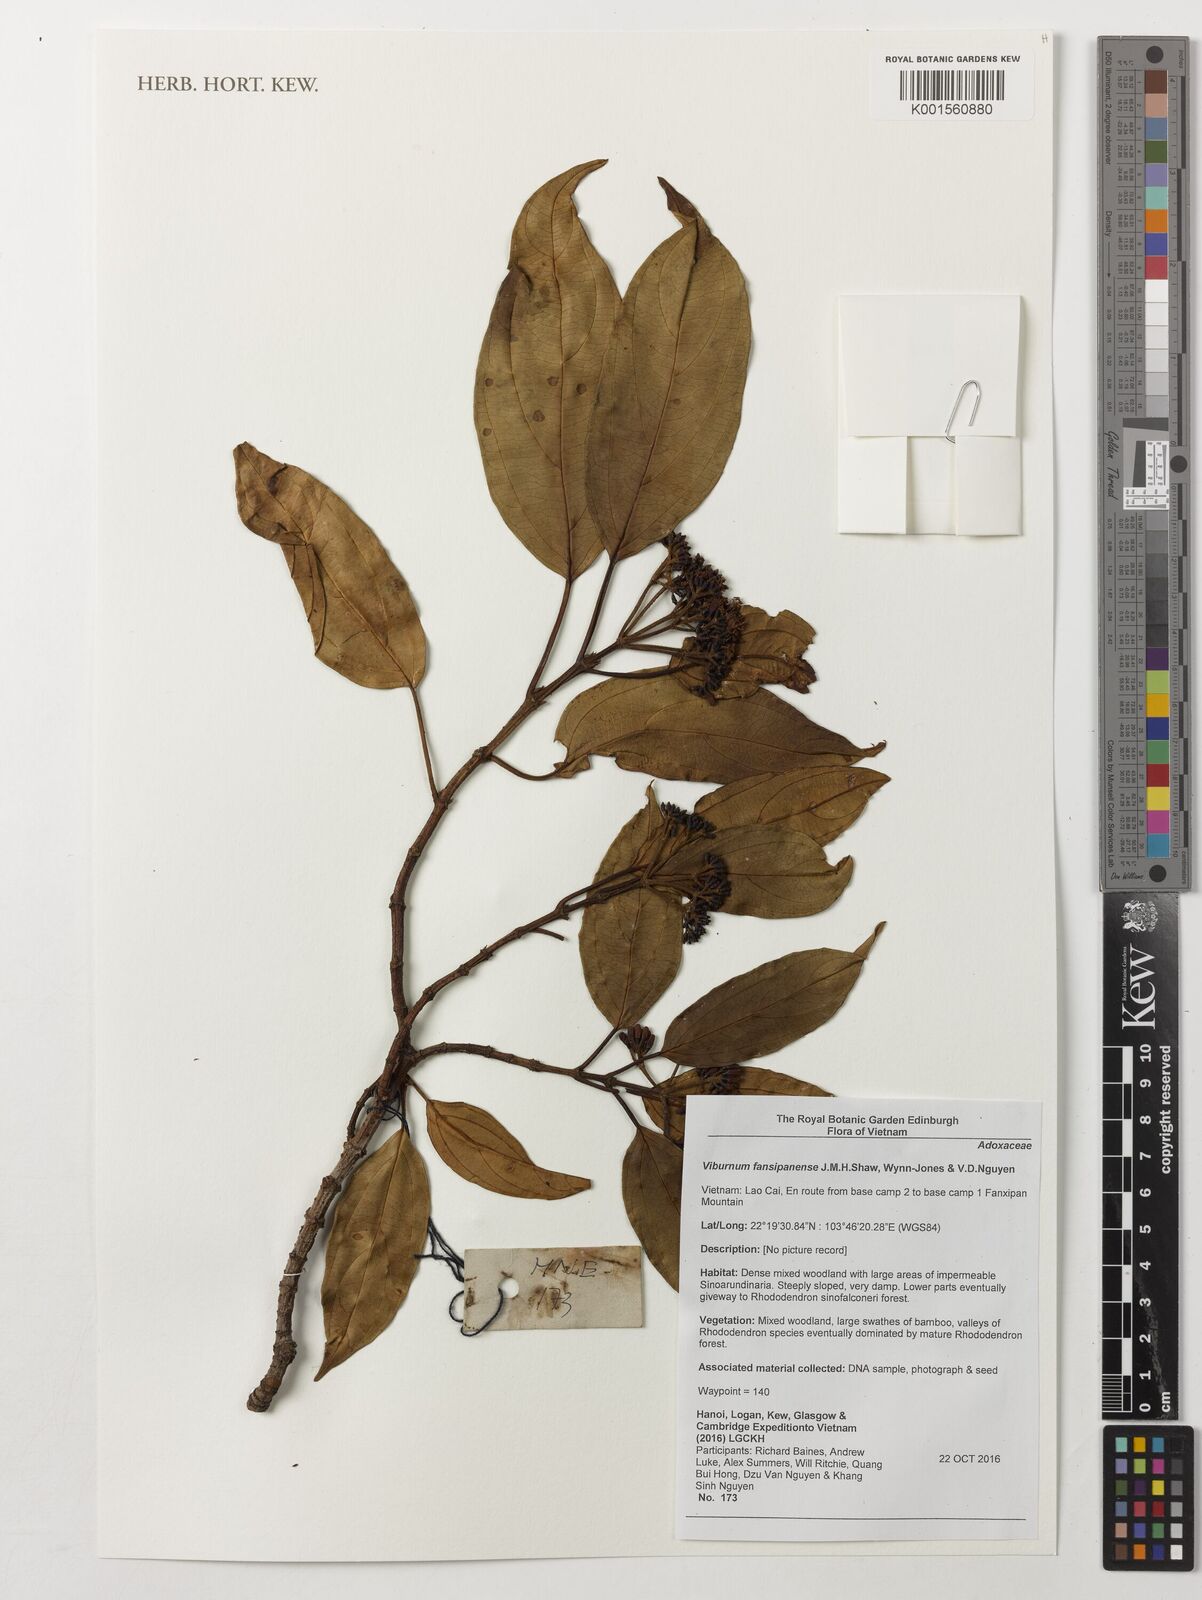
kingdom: Plantae
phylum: Tracheophyta
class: Magnoliopsida
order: Dipsacales
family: Viburnaceae
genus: Viburnum
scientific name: Viburnum fansipanense
